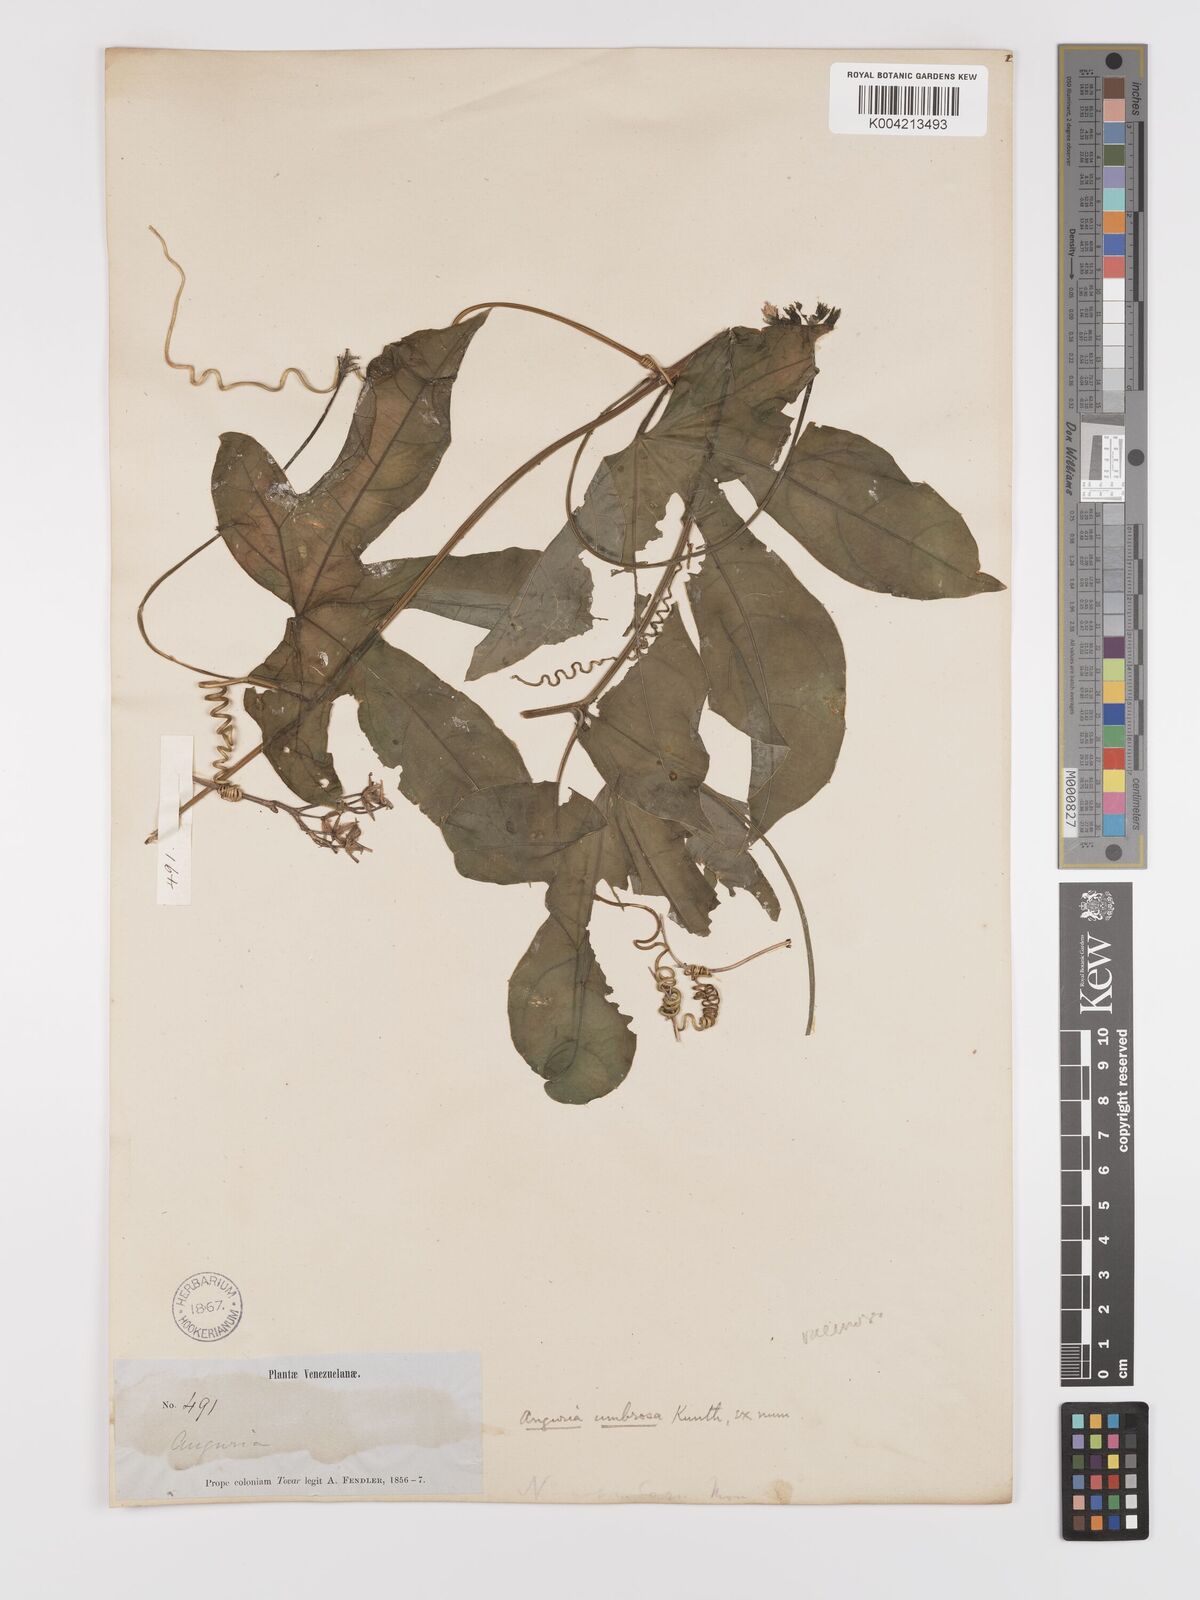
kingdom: Plantae
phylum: Tracheophyta
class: Magnoliopsida
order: Cucurbitales
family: Cucurbitaceae
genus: Psiguria
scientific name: Psiguria racemosa
